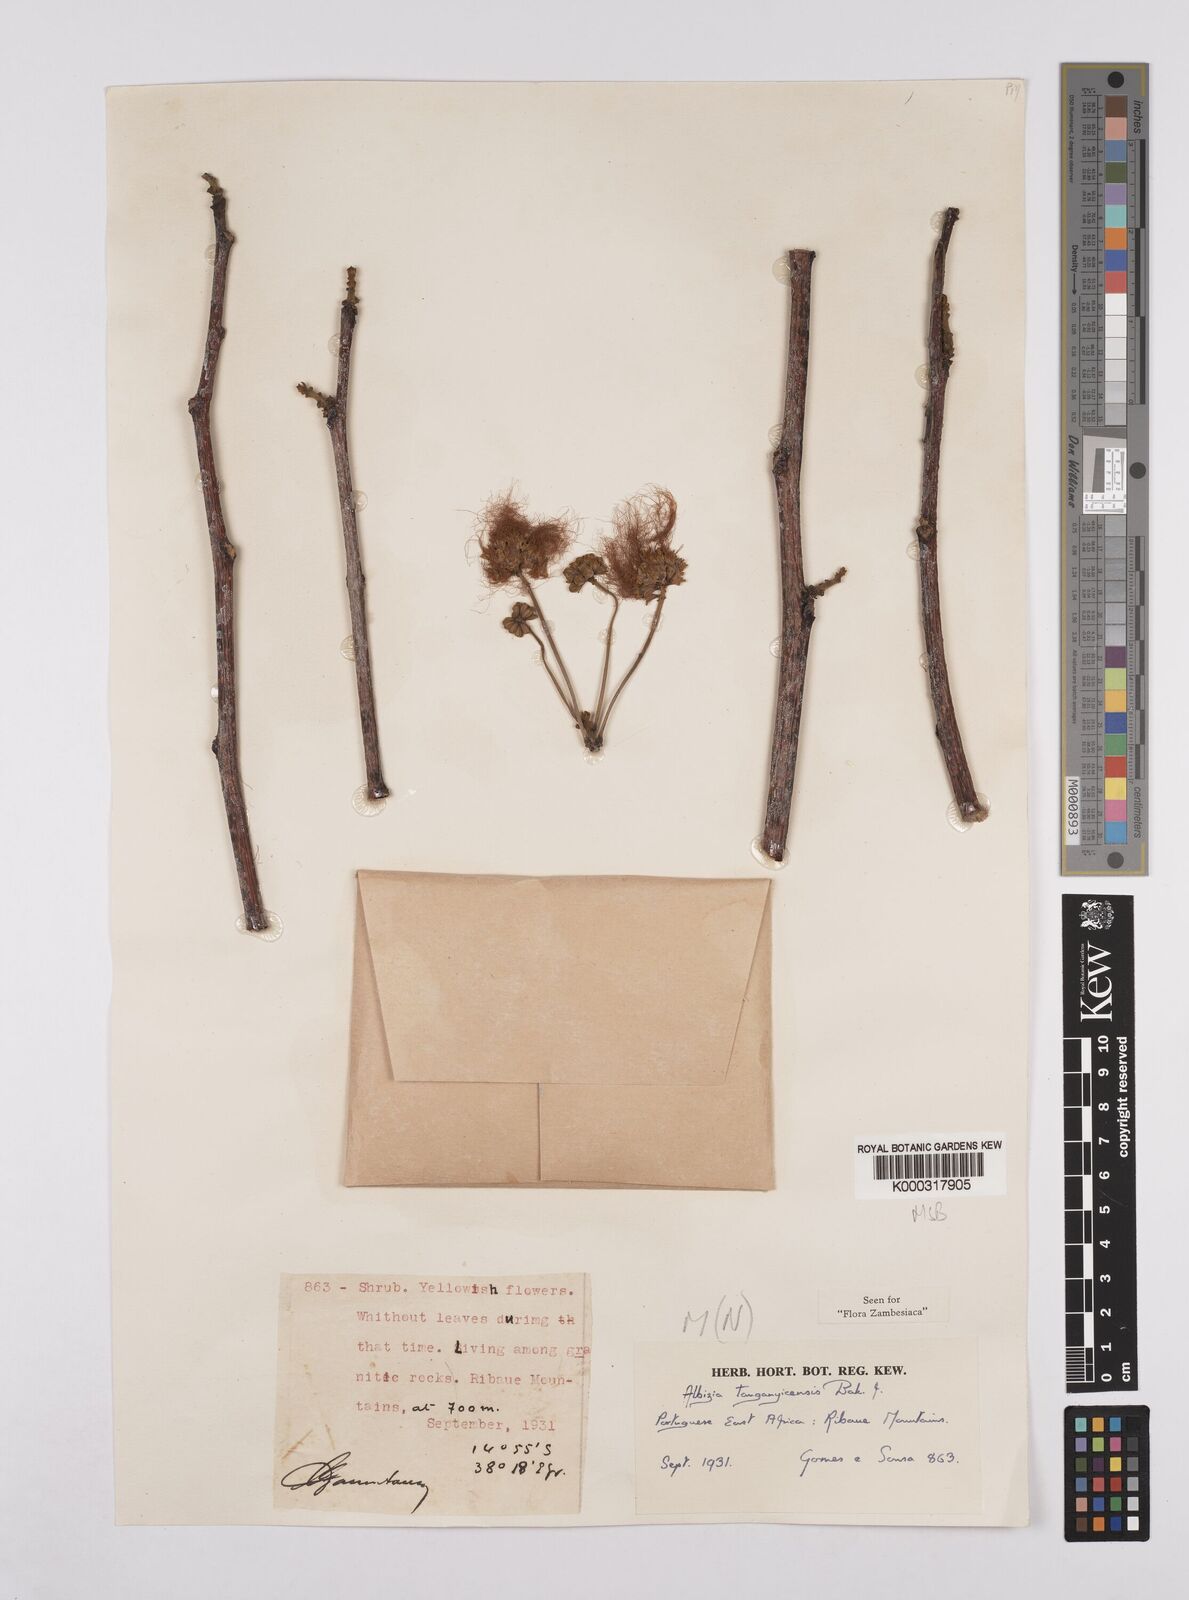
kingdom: Plantae
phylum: Tracheophyta
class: Magnoliopsida
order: Fabales
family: Fabaceae
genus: Albizia
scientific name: Albizia tanganyicensis
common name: Paperbark false thorn
